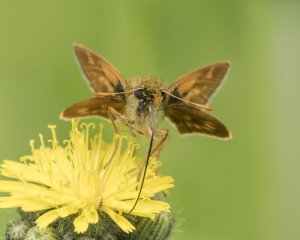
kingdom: Animalia
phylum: Arthropoda
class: Insecta
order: Lepidoptera
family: Hesperiidae
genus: Polites
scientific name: Polites
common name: Long Dash Skipper
